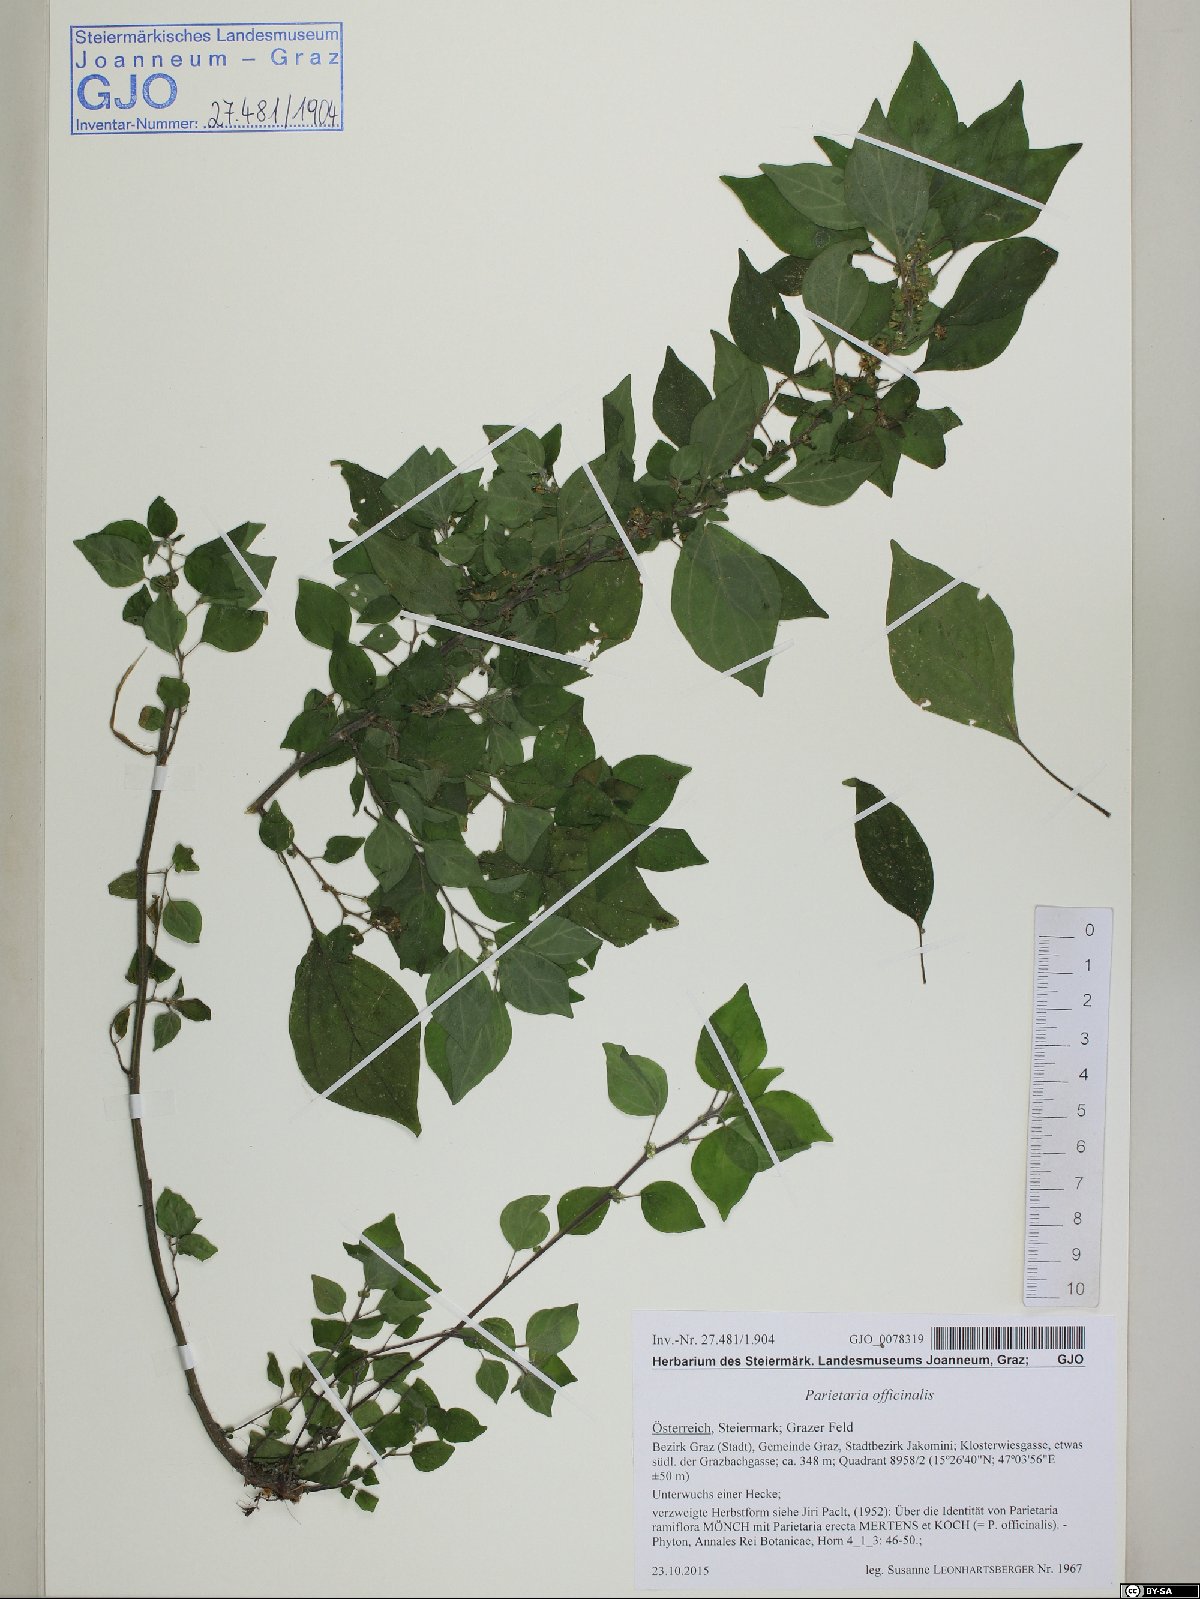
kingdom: Plantae
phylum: Tracheophyta
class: Magnoliopsida
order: Rosales
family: Urticaceae
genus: Parietaria
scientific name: Parietaria officinalis
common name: Eastern pellitory-of-the-wall
